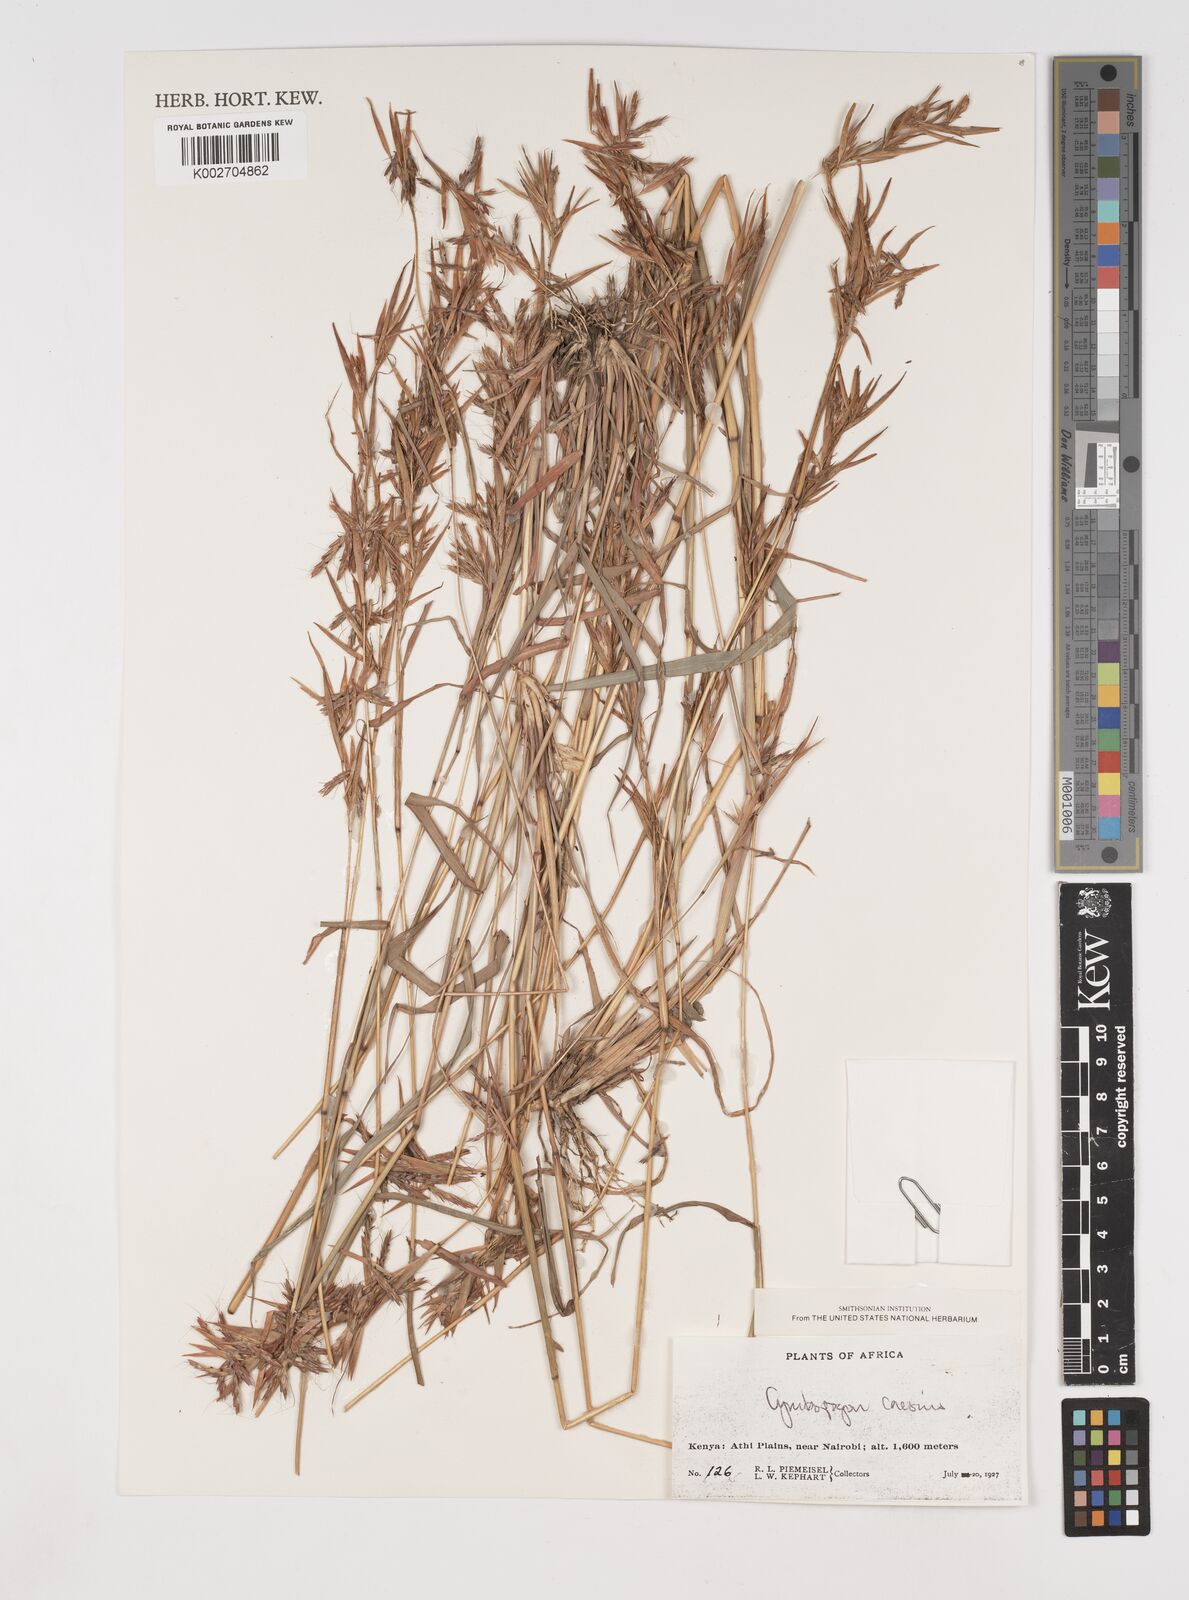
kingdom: Plantae
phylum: Tracheophyta
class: Liliopsida
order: Poales
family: Poaceae
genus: Cymbopogon
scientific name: Cymbopogon caesius
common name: Kachi grass
